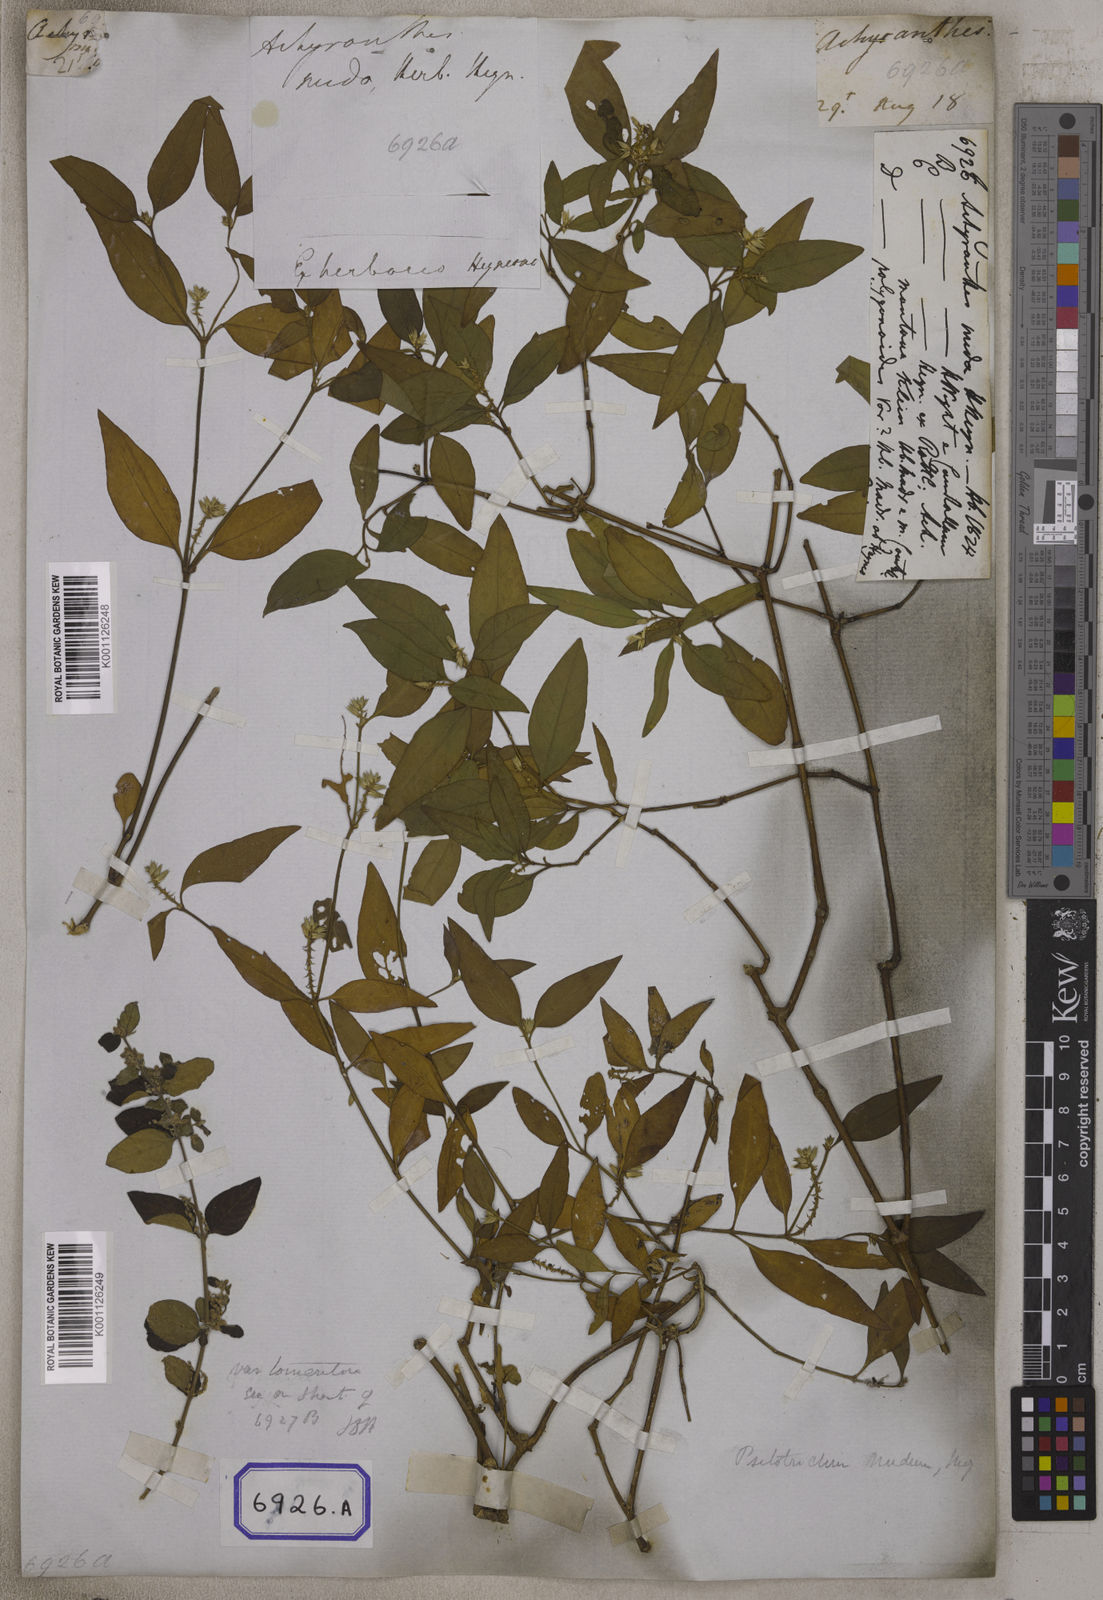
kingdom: Plantae
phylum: Tracheophyta
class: Magnoliopsida
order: Caryophyllales
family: Amaranthaceae
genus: Psilotrichum
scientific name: Psilotrichum nudum
